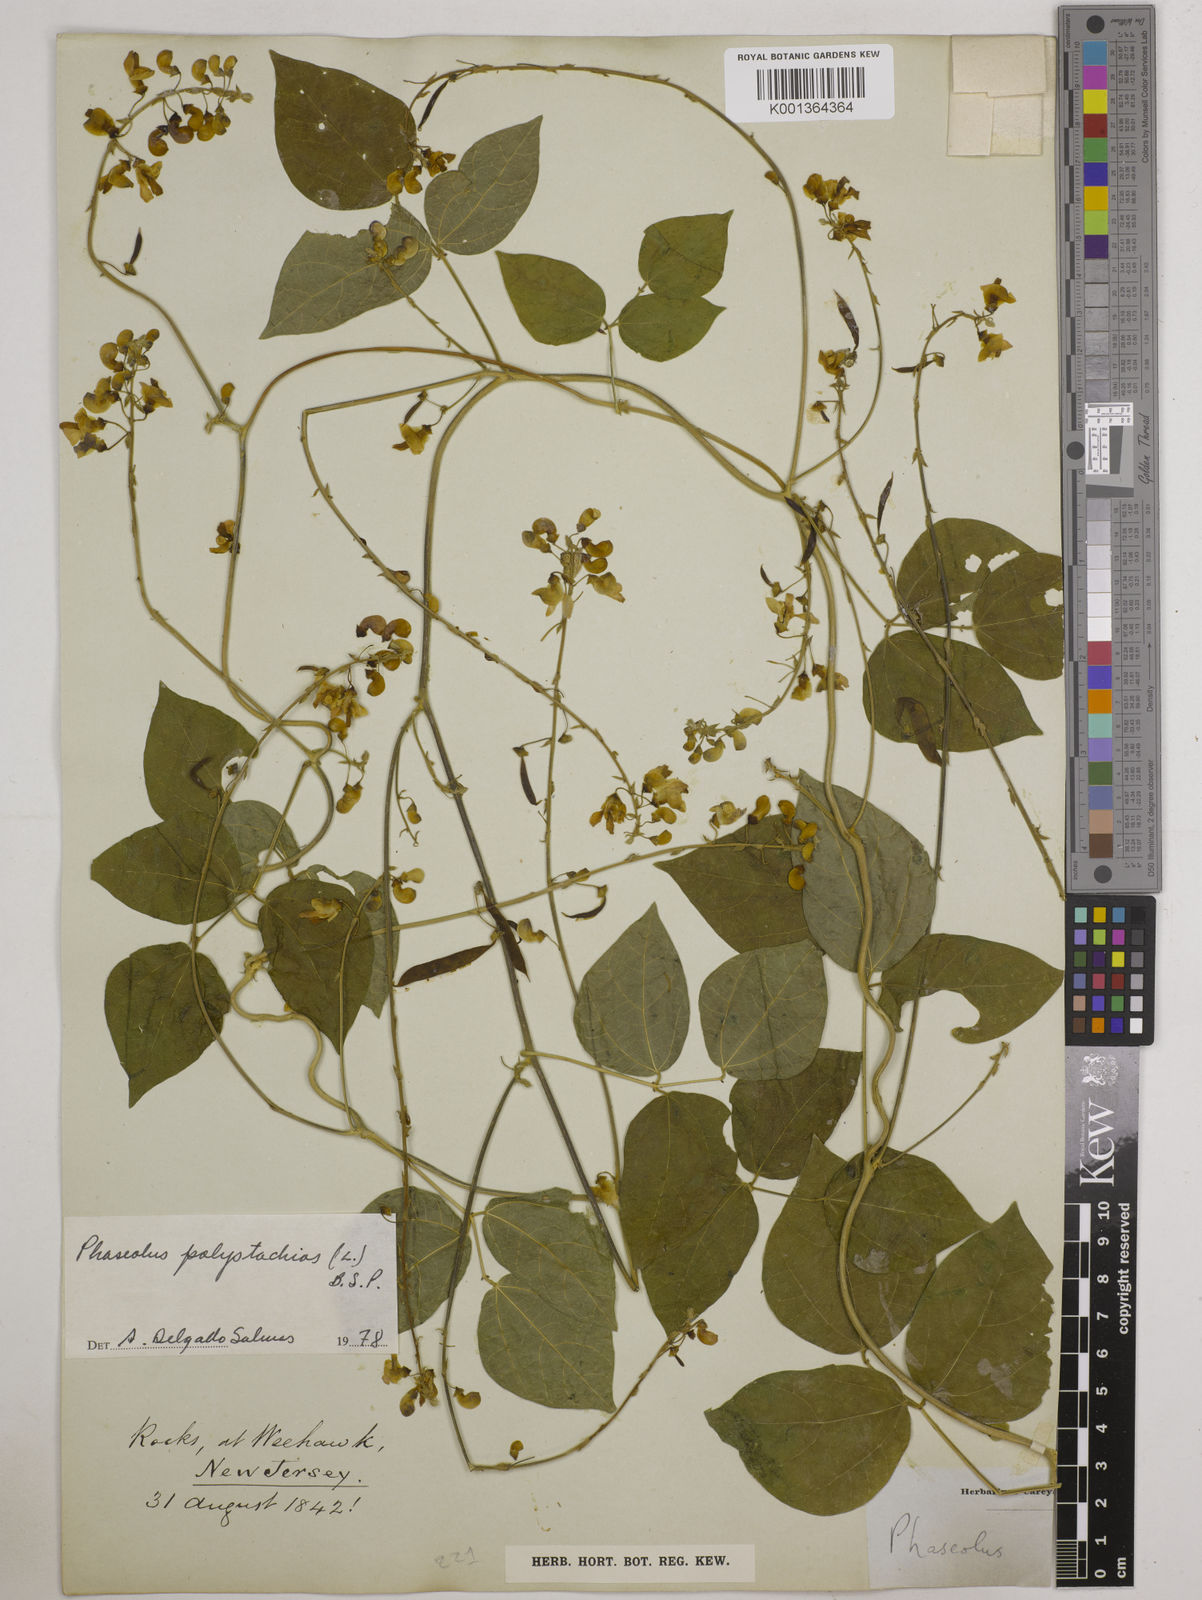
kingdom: Plantae
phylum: Tracheophyta
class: Magnoliopsida
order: Fabales
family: Fabaceae
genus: Phaseolus
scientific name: Phaseolus
